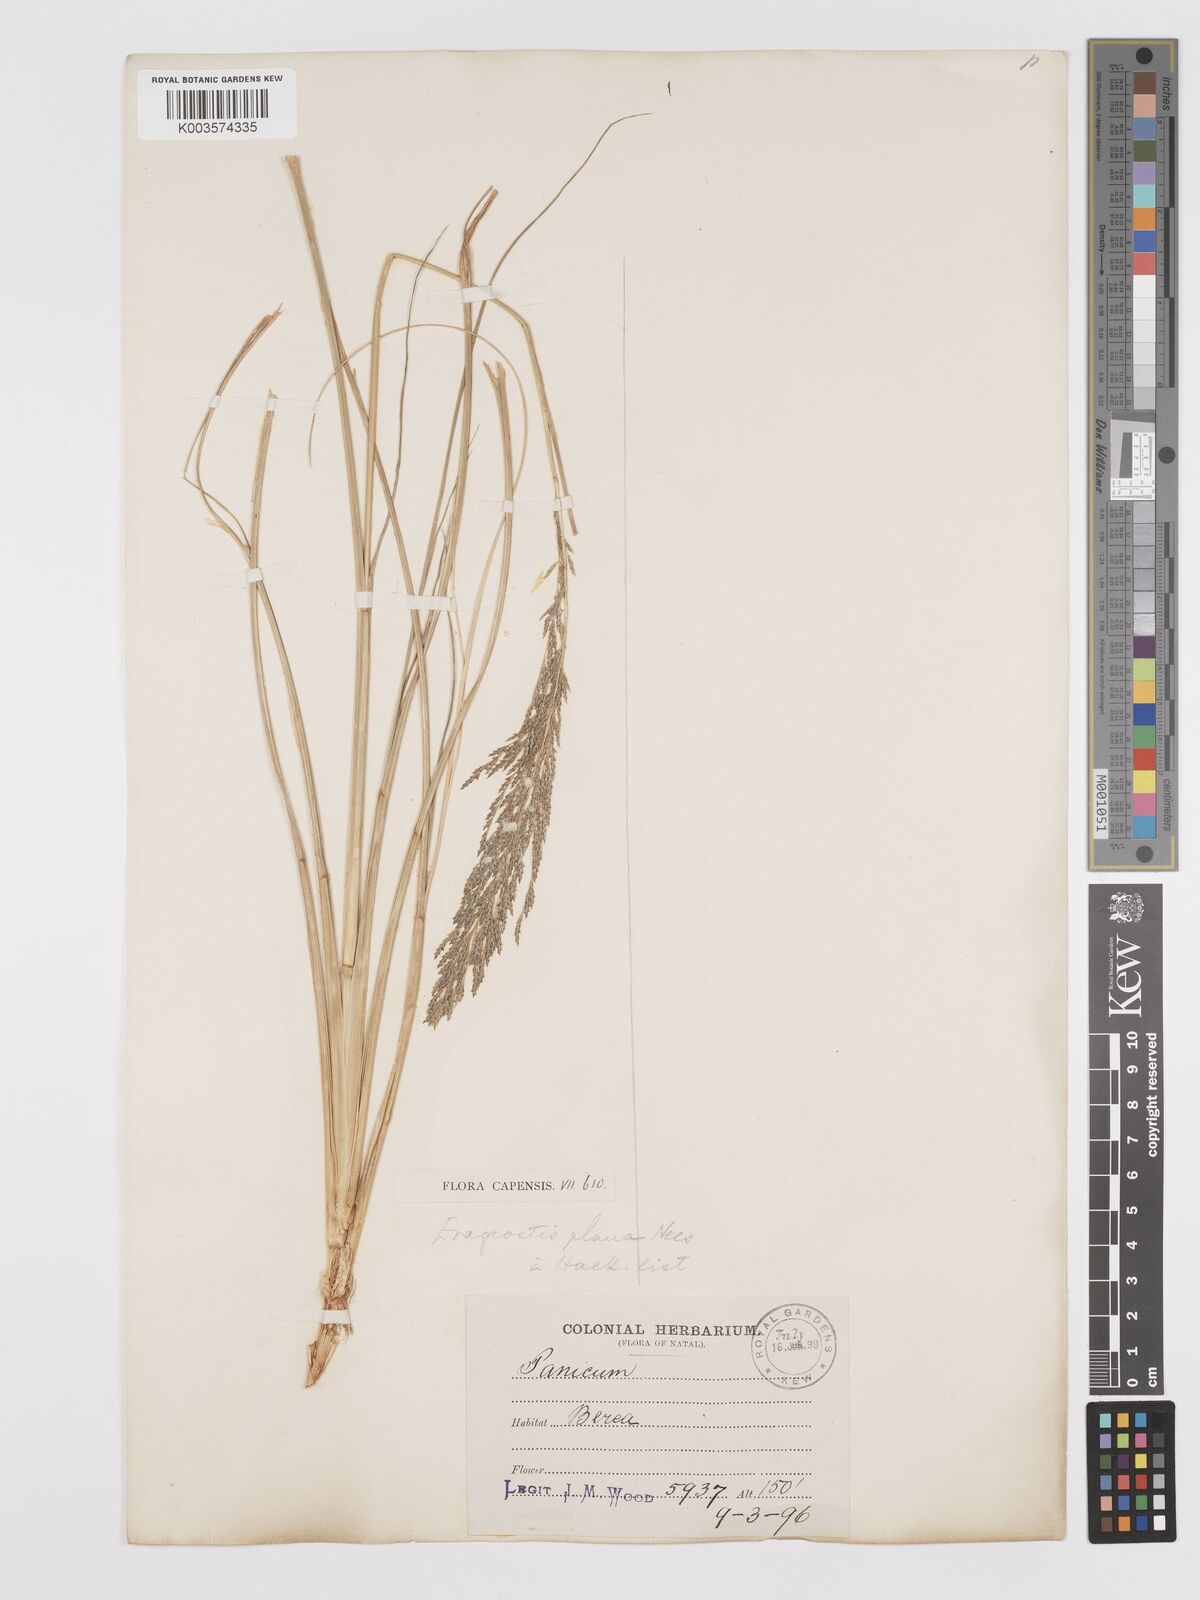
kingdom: Plantae
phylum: Tracheophyta
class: Liliopsida
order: Poales
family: Poaceae
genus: Eragrostis
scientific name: Eragrostis plana
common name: South african lovegrass
